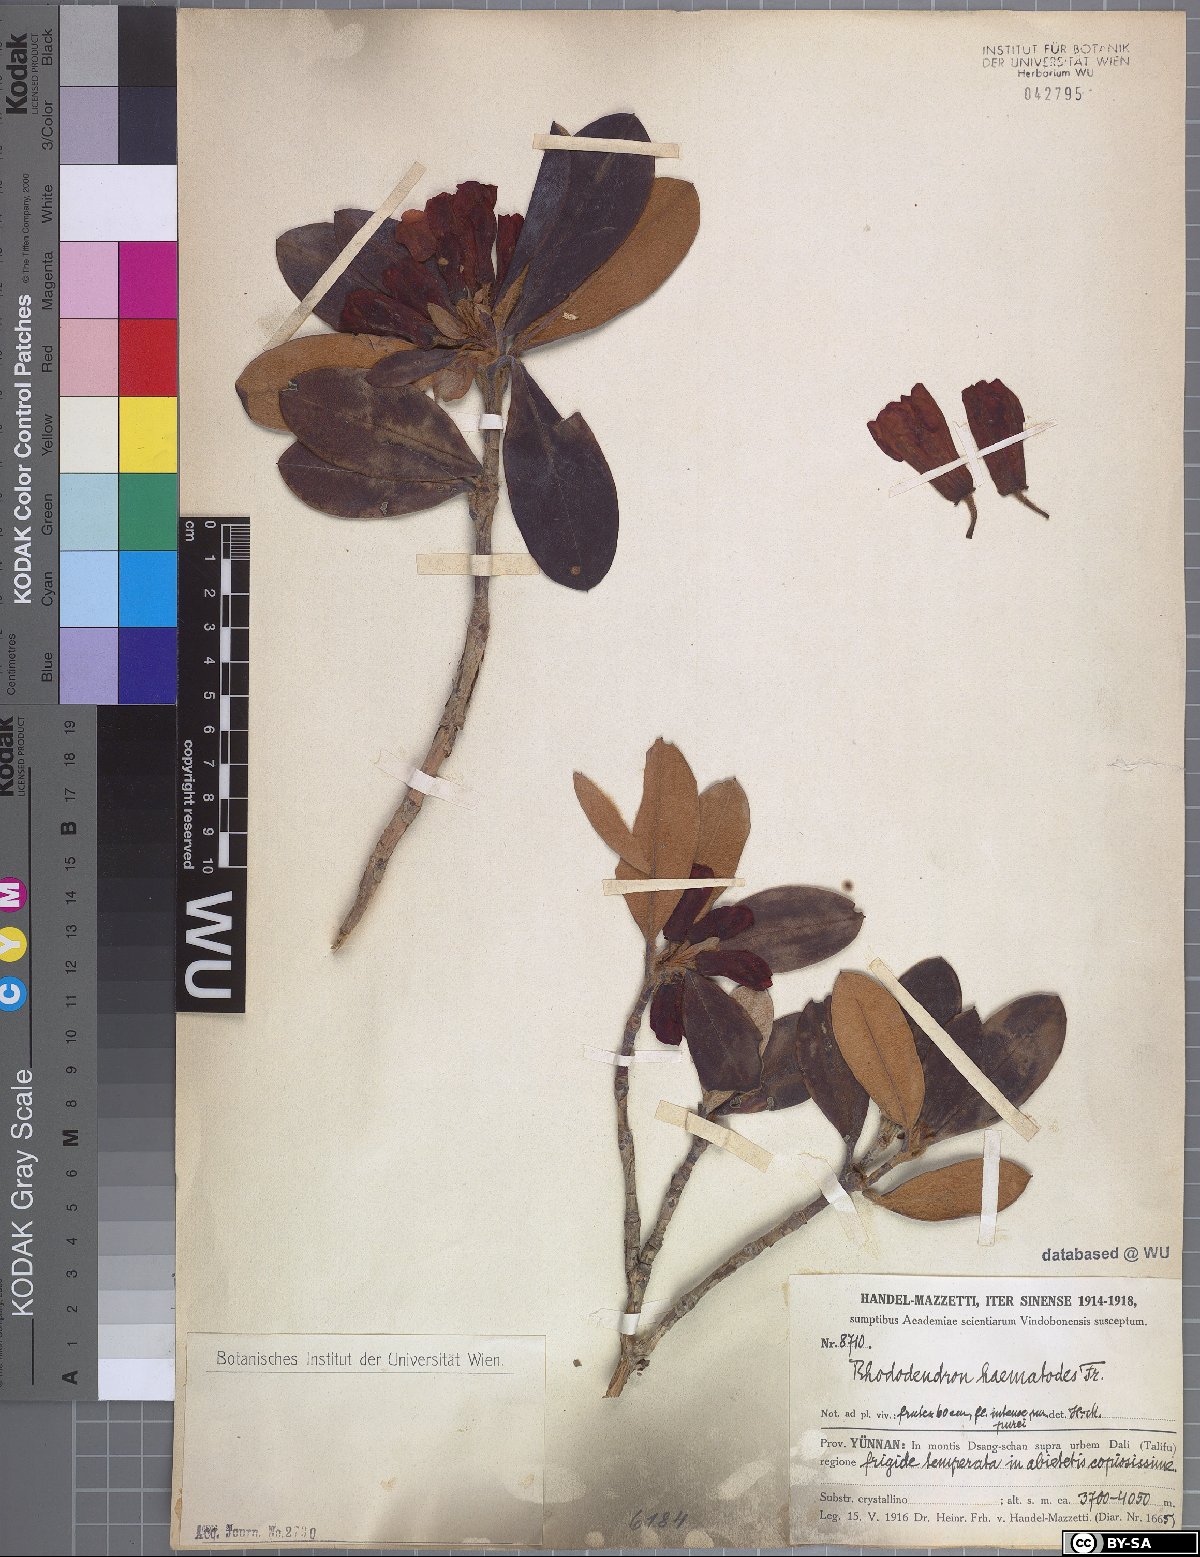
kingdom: Plantae
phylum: Tracheophyta
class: Magnoliopsida
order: Ericales
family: Ericaceae
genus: Rhododendron
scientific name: Rhododendron haematodes
